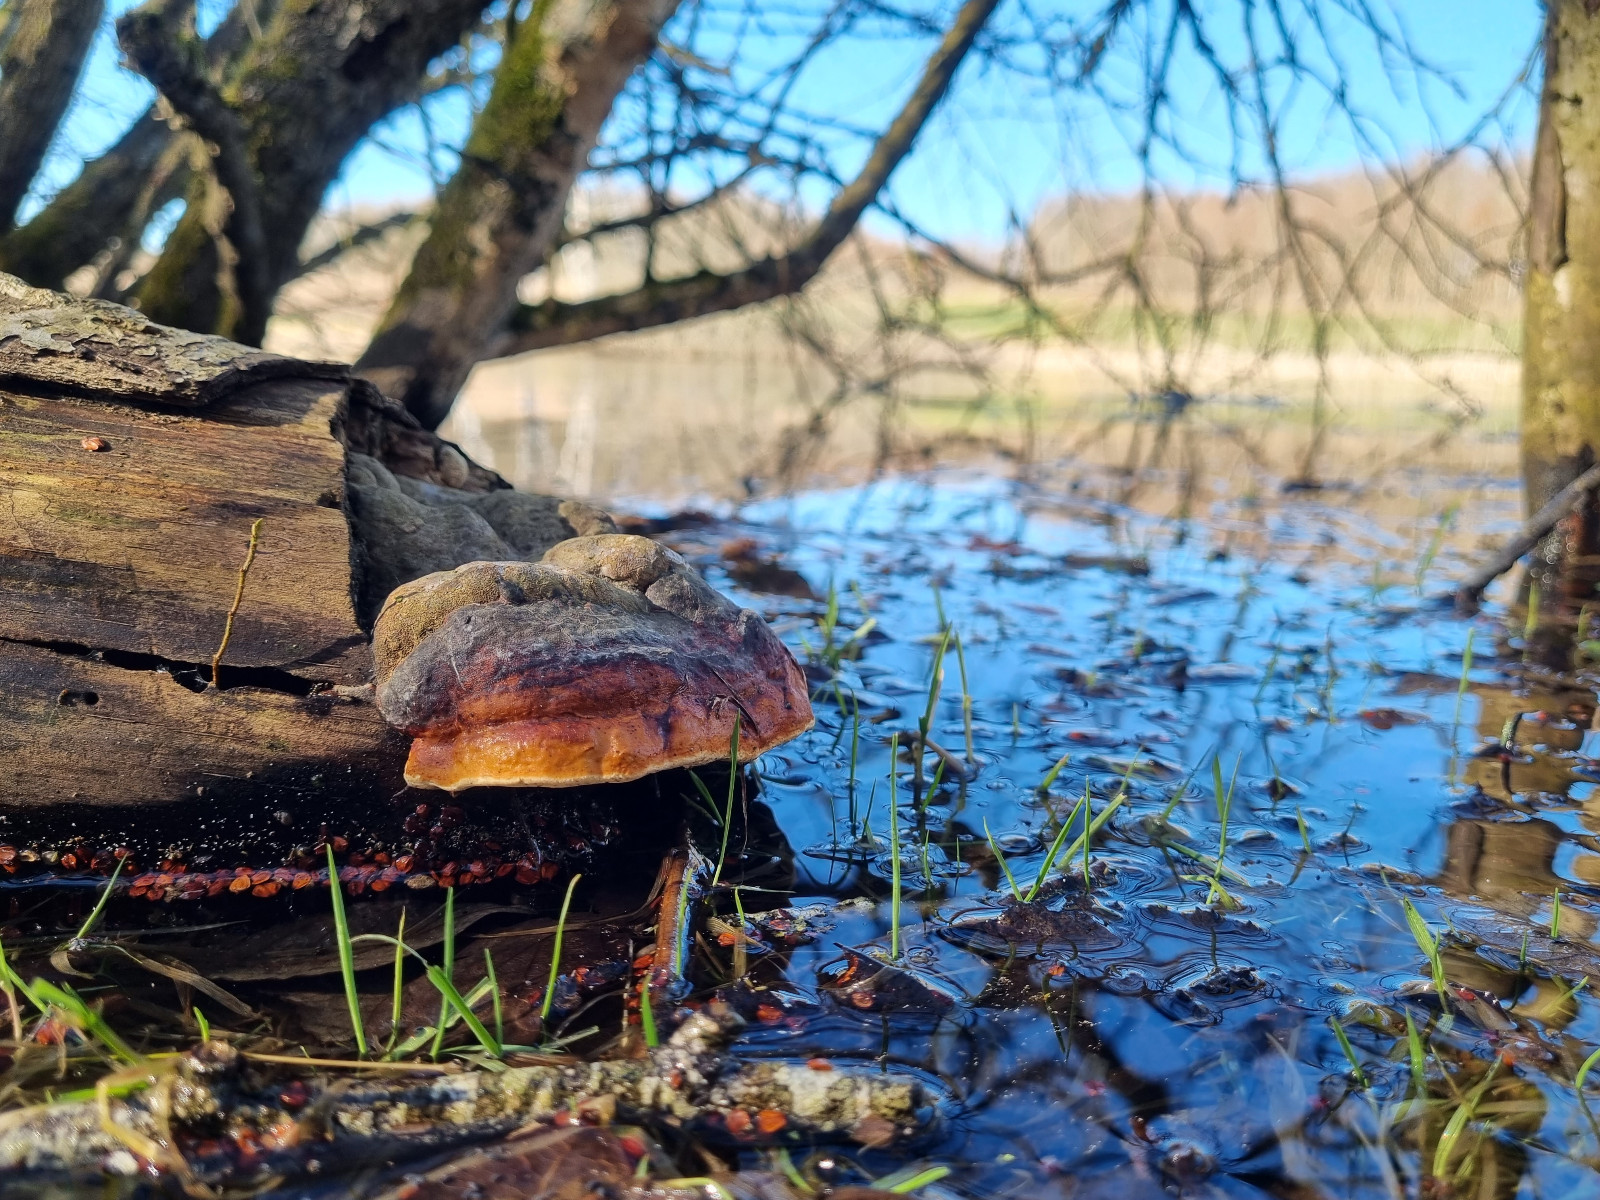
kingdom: Fungi
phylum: Basidiomycota
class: Agaricomycetes
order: Polyporales
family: Fomitopsidaceae
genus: Fomitopsis
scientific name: Fomitopsis pinicola
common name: randbæltet hovporesvamp
